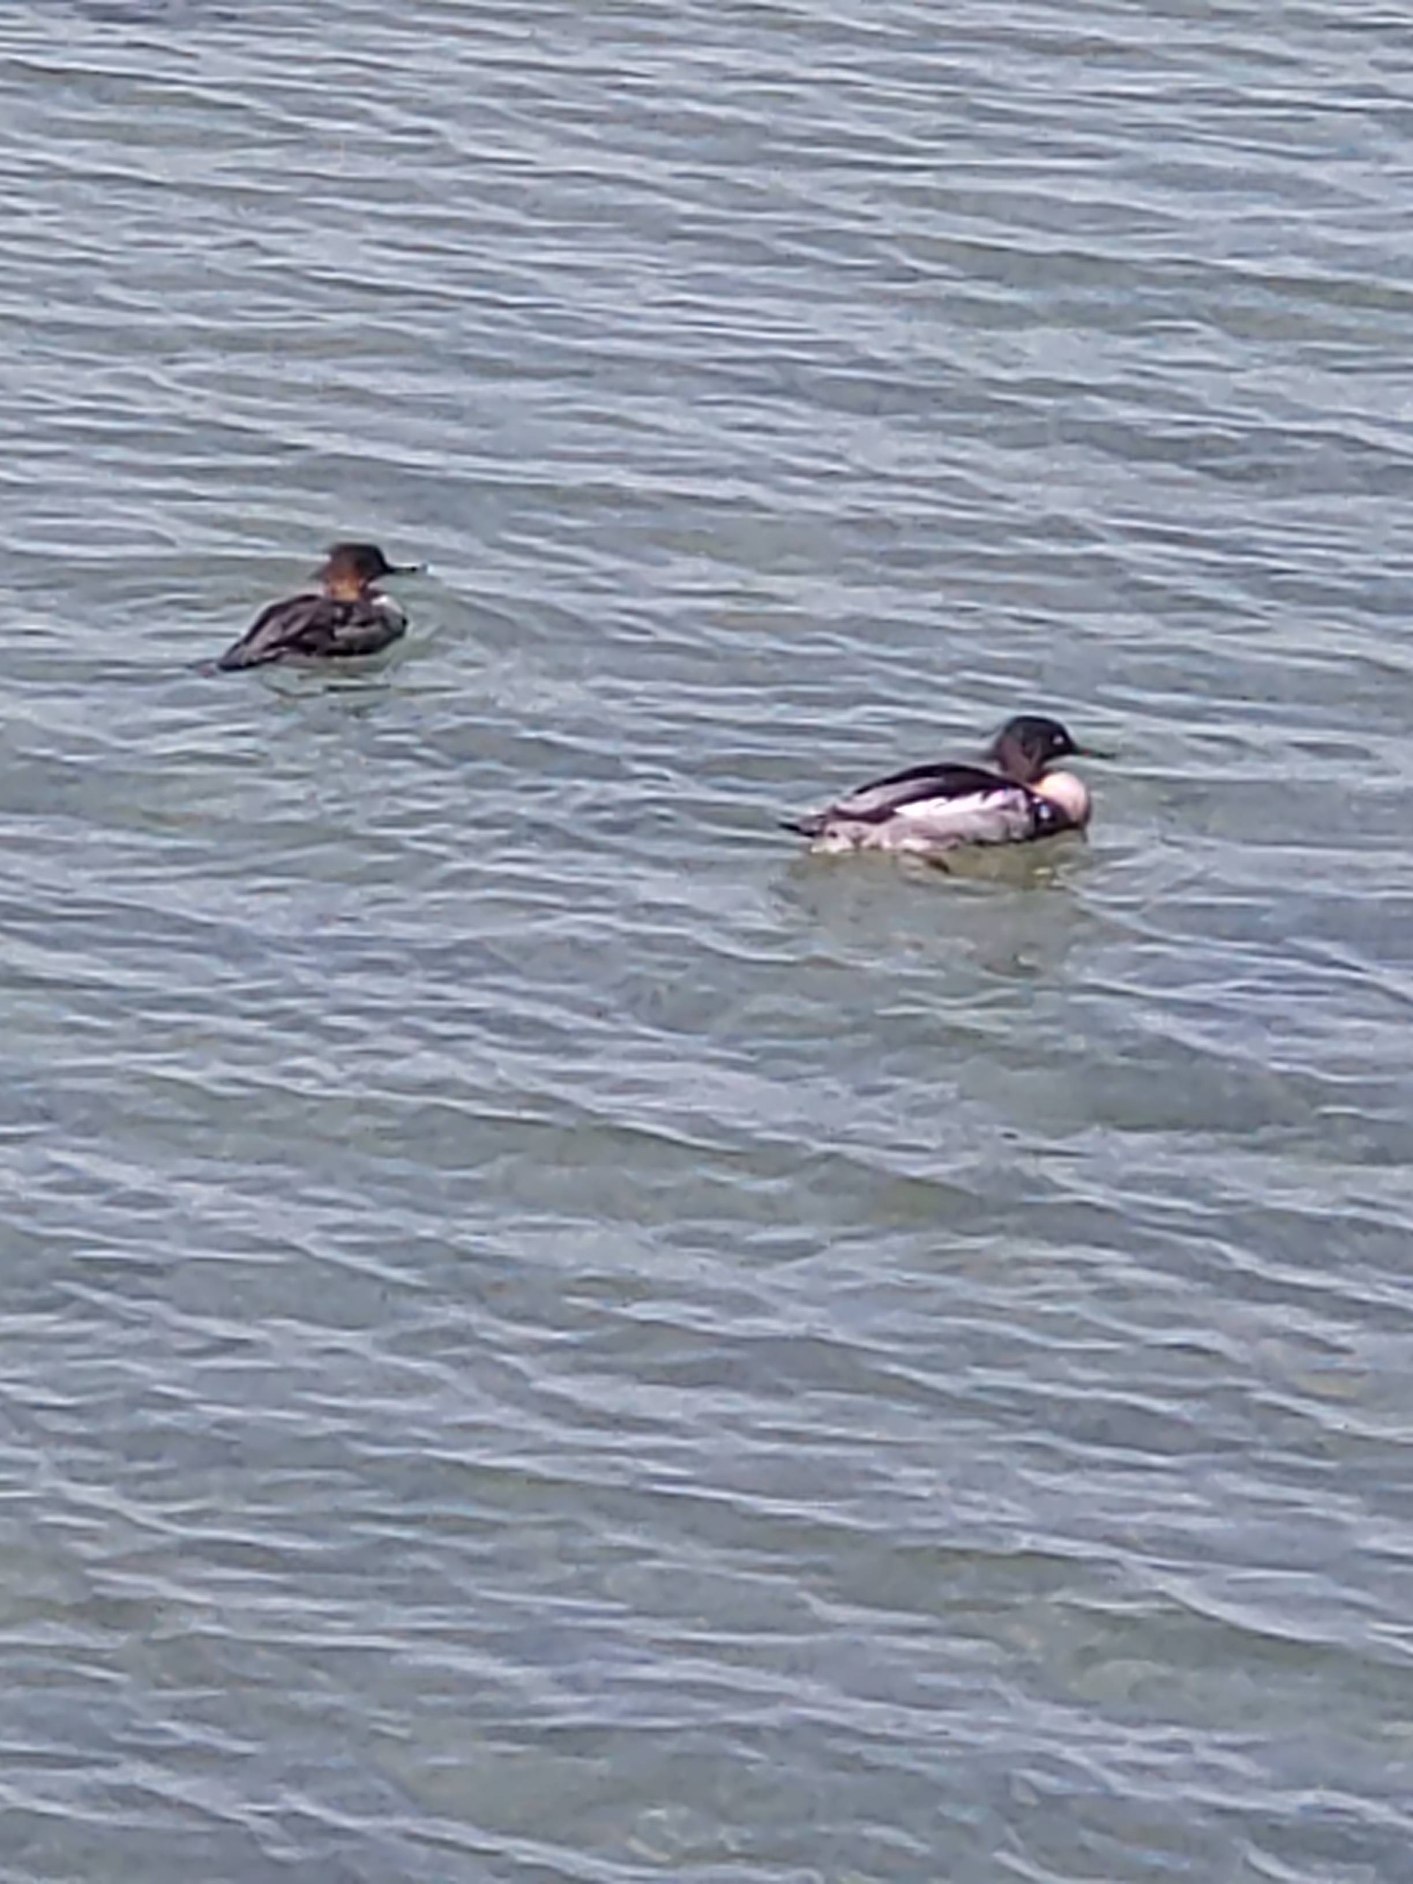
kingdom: Animalia
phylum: Chordata
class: Aves
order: Anseriformes
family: Anatidae
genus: Mergus
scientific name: Mergus serrator
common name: Toppet skallesluger
